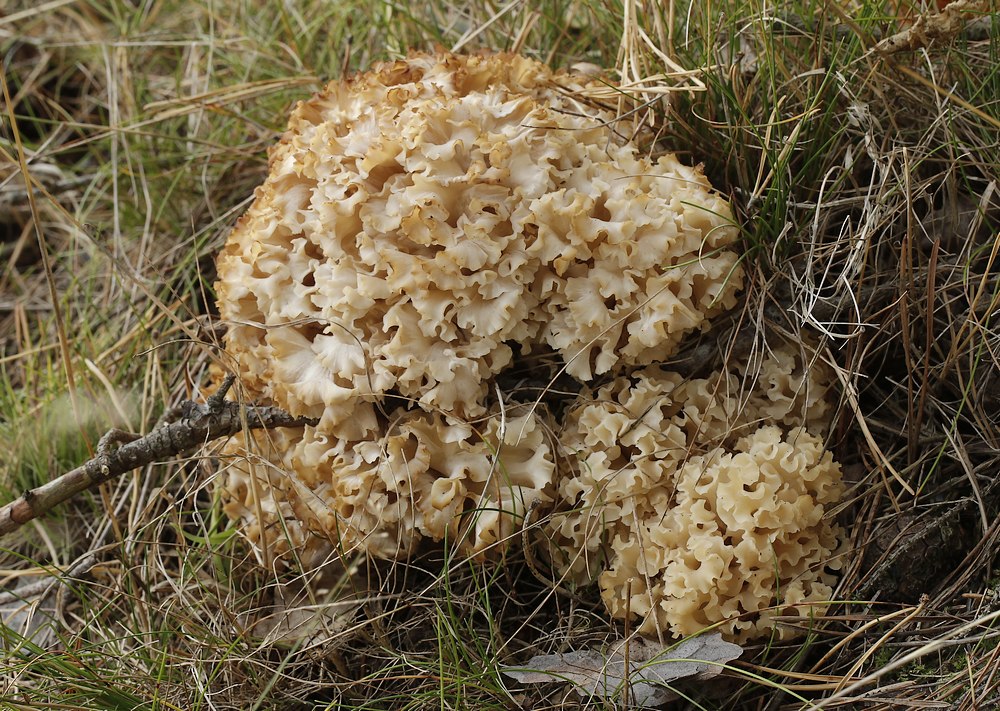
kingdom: Fungi
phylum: Basidiomycota
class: Agaricomycetes
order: Polyporales
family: Sparassidaceae
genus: Sparassis
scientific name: Sparassis crispa
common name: kruset blomkålssvamp
